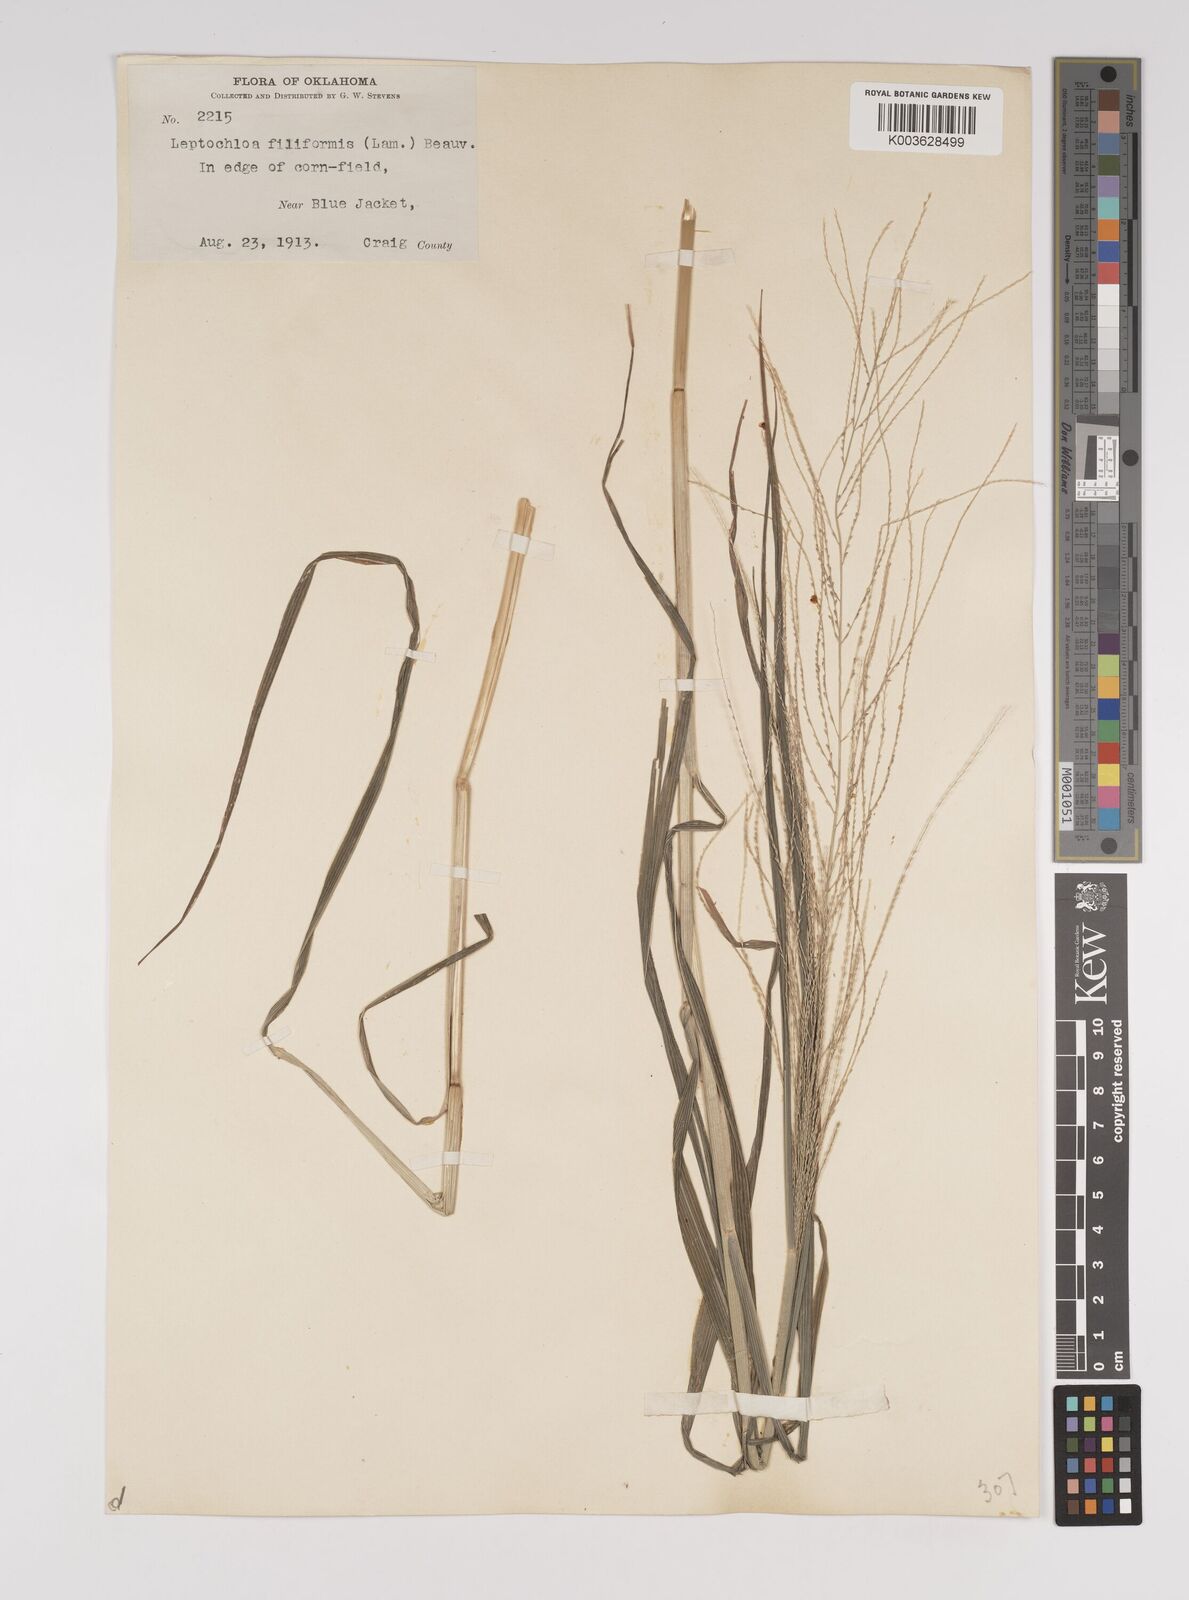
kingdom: Plantae
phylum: Tracheophyta
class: Liliopsida
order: Poales
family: Poaceae
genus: Leptochloa
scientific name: Leptochloa panicea
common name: Mucronate sprangletop
